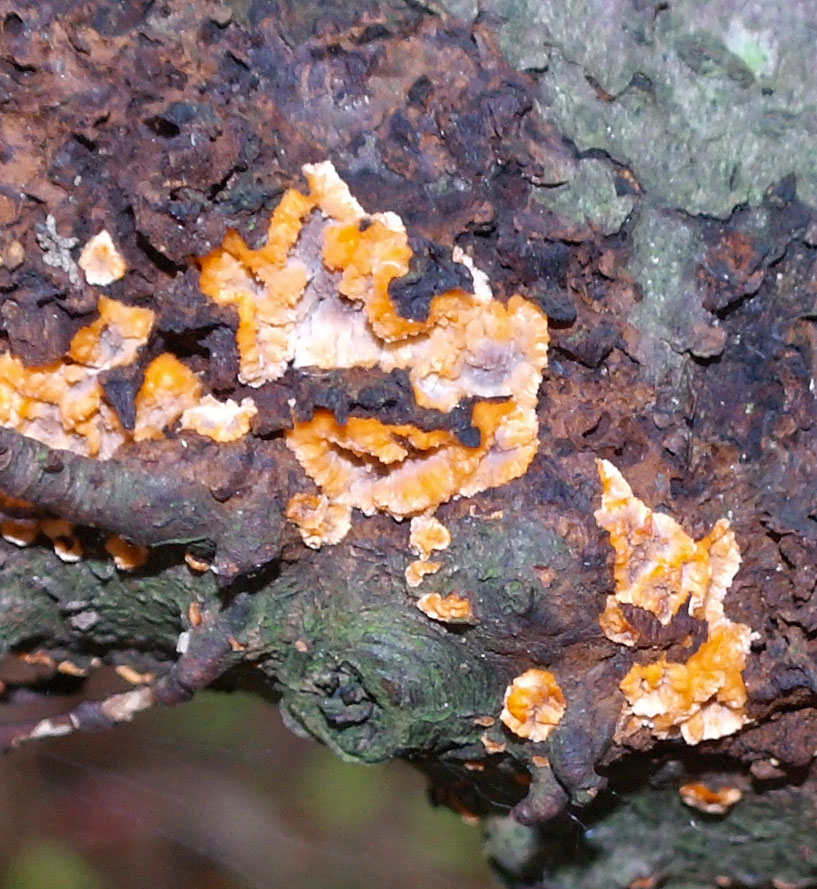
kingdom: Fungi
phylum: Basidiomycota
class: Agaricomycetes
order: Polyporales
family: Meruliaceae
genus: Phlebia
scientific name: Phlebia radiata
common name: stråle-åresvamp
